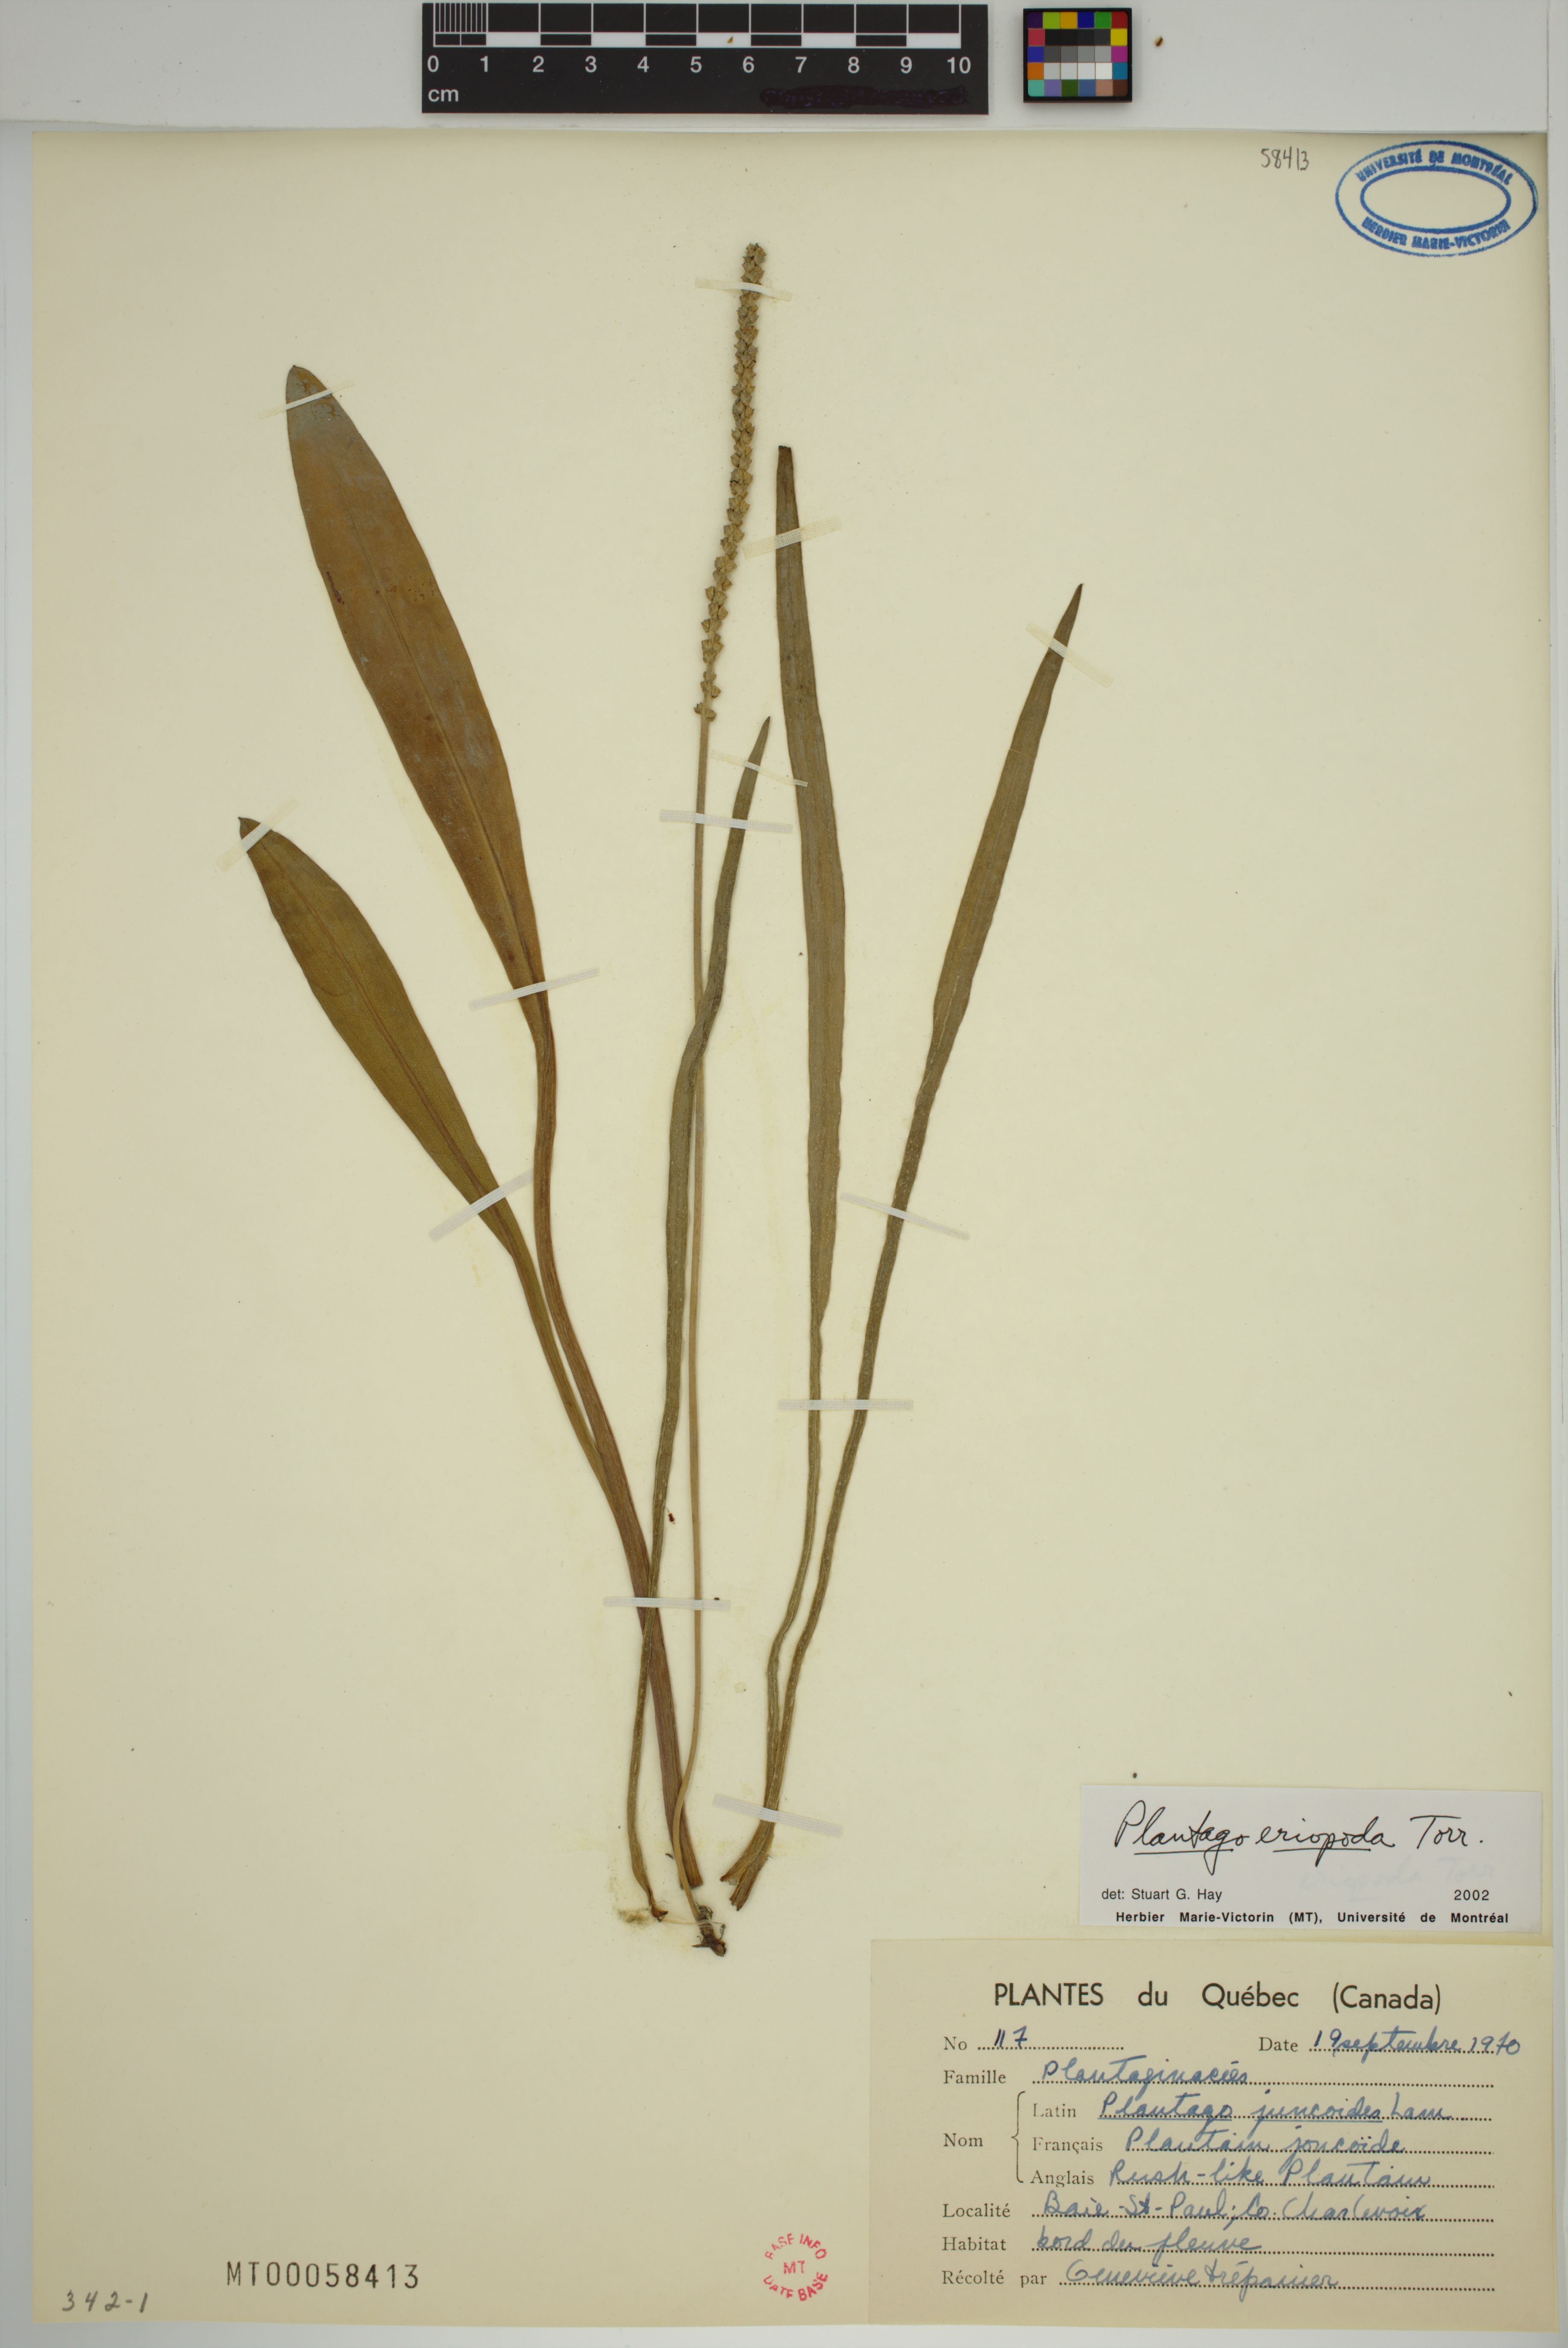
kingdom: Plantae
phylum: Tracheophyta
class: Magnoliopsida
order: Lamiales
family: Plantaginaceae
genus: Plantago
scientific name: Plantago eriopoda
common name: Alkali plantain
